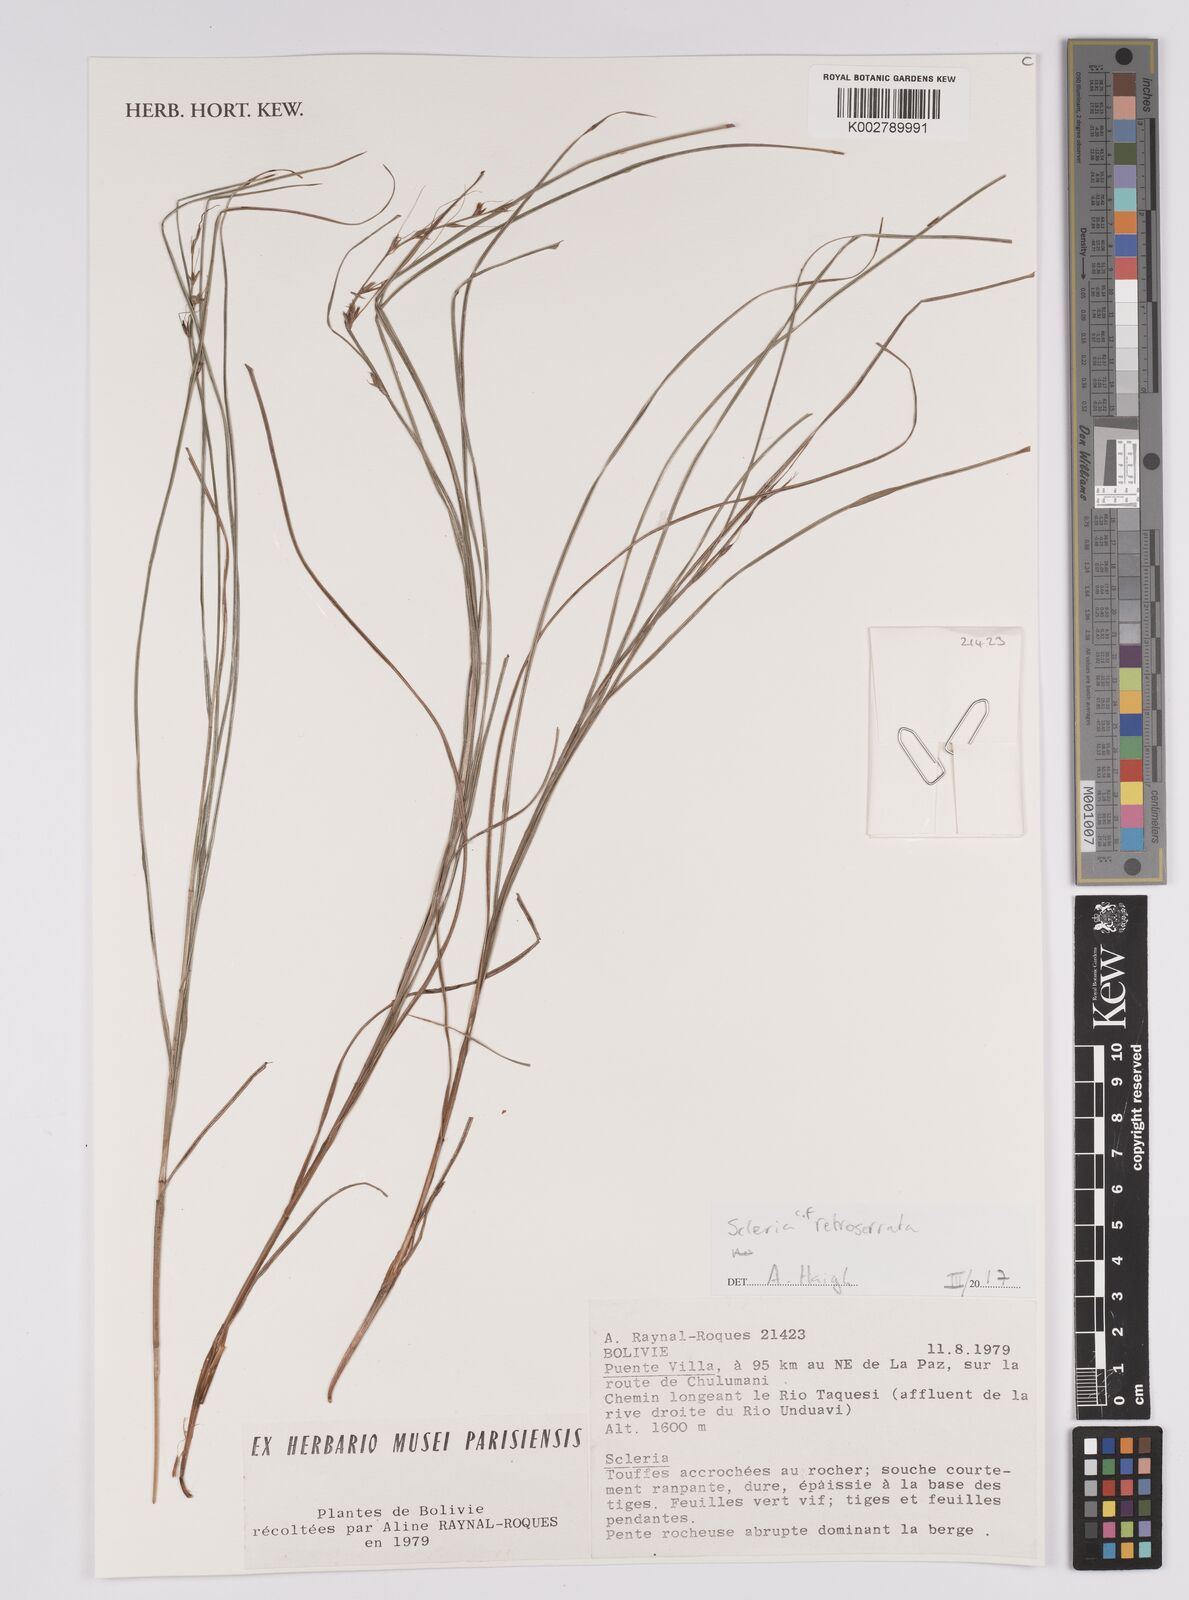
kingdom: Plantae
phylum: Tracheophyta
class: Liliopsida
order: Poales
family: Cyperaceae
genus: Scleria
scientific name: Scleria gracillima
